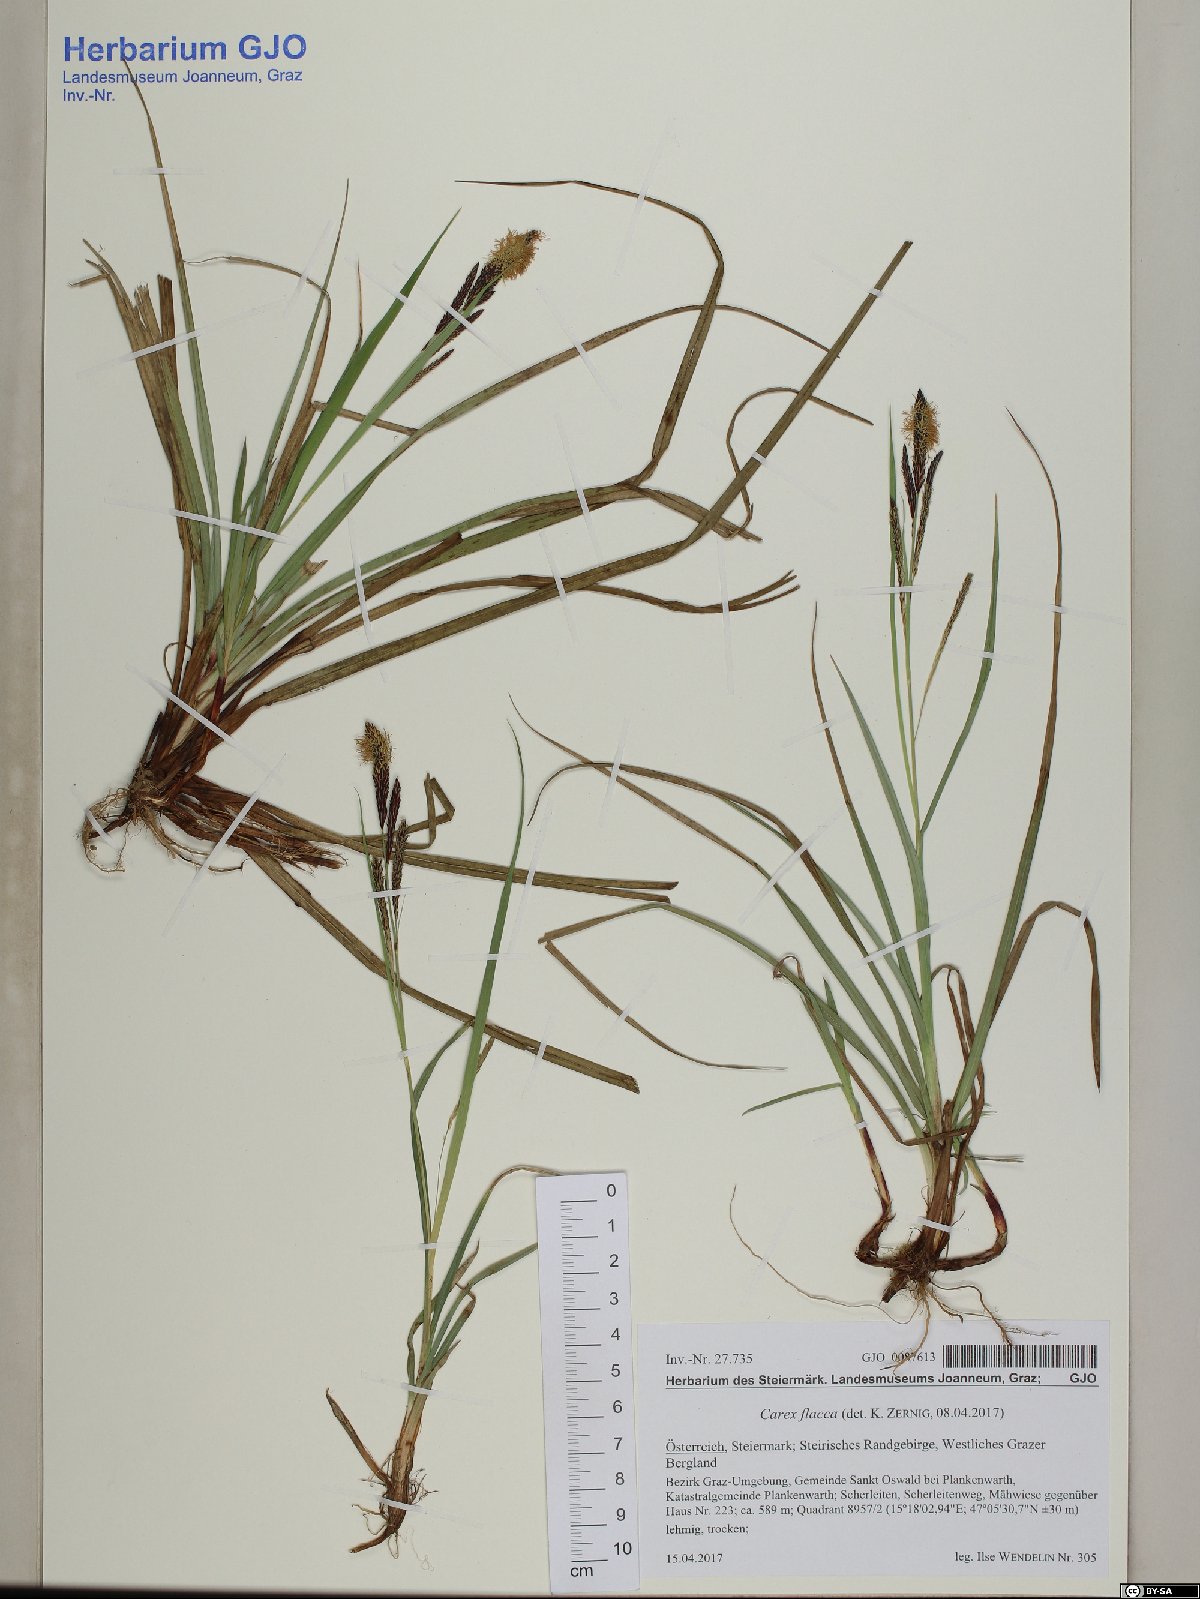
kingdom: Plantae
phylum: Tracheophyta
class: Liliopsida
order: Poales
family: Cyperaceae
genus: Carex
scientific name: Carex flacca
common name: Glaucous sedge
